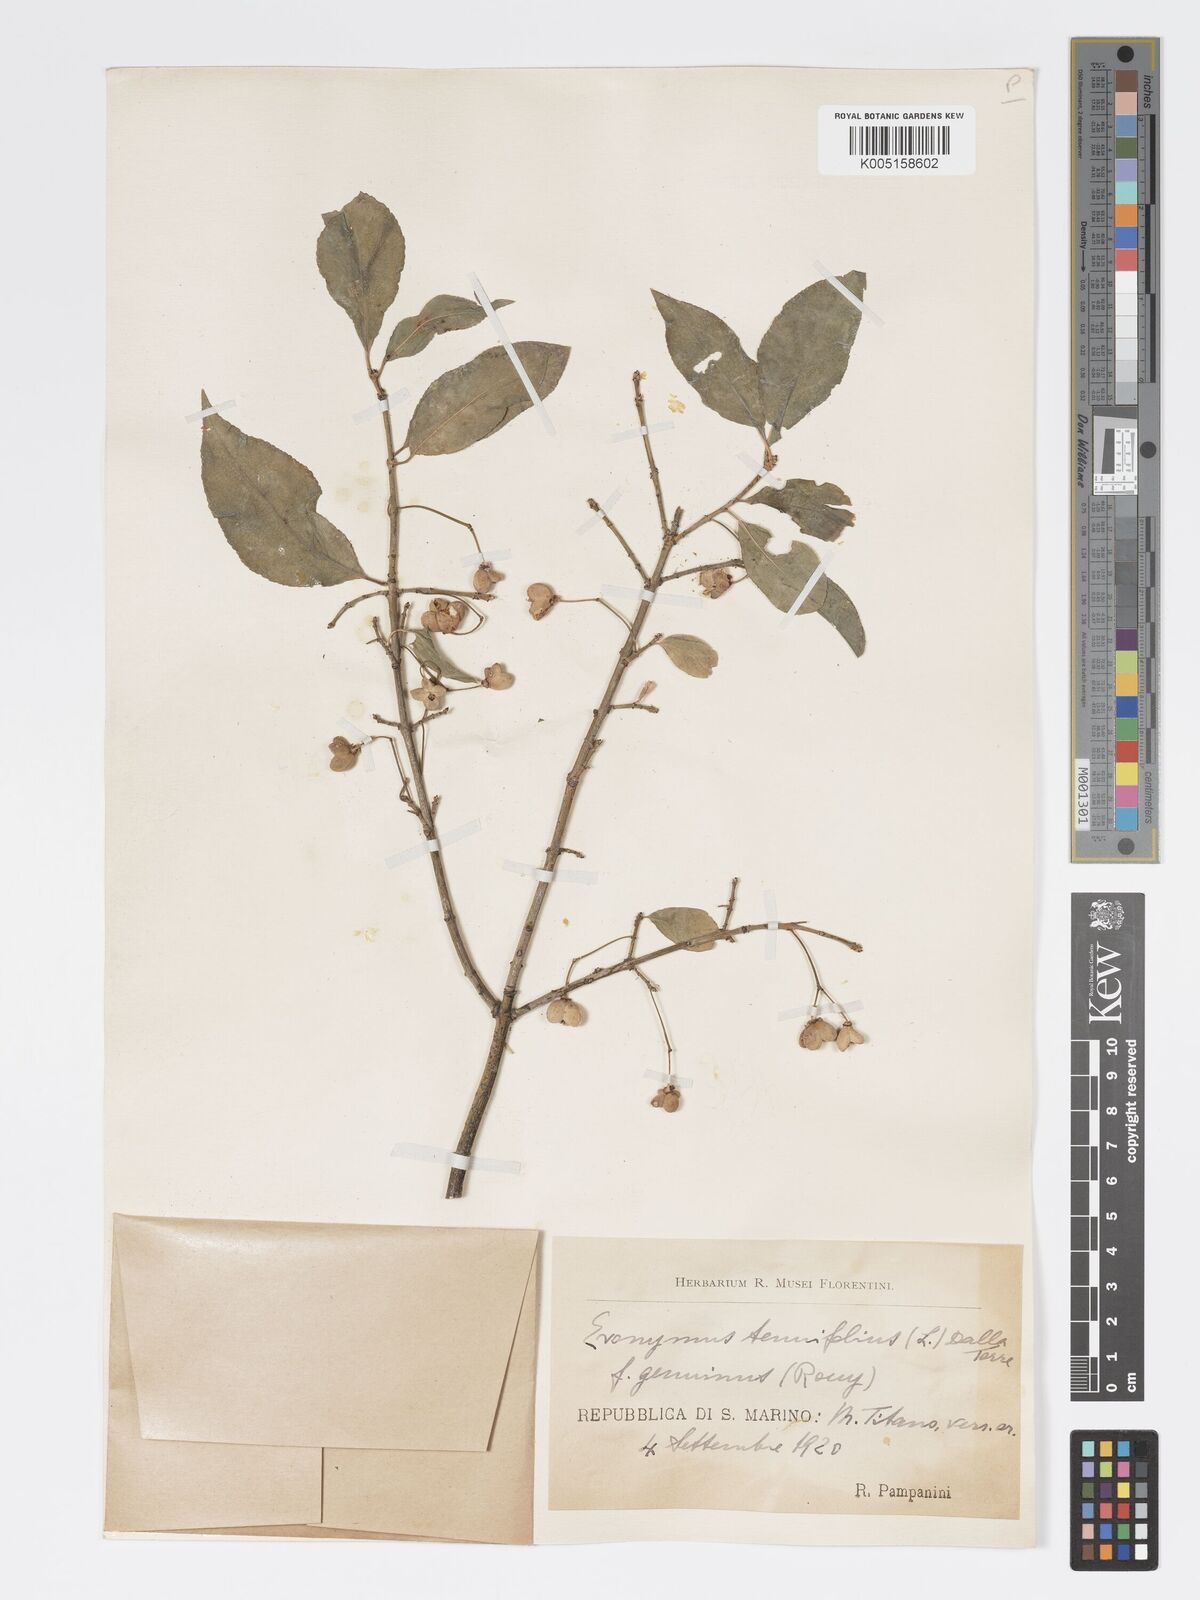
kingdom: Plantae
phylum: Tracheophyta
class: Magnoliopsida
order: Celastrales
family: Celastraceae
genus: Euonymus
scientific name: Euonymus europaeus
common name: Spindle
